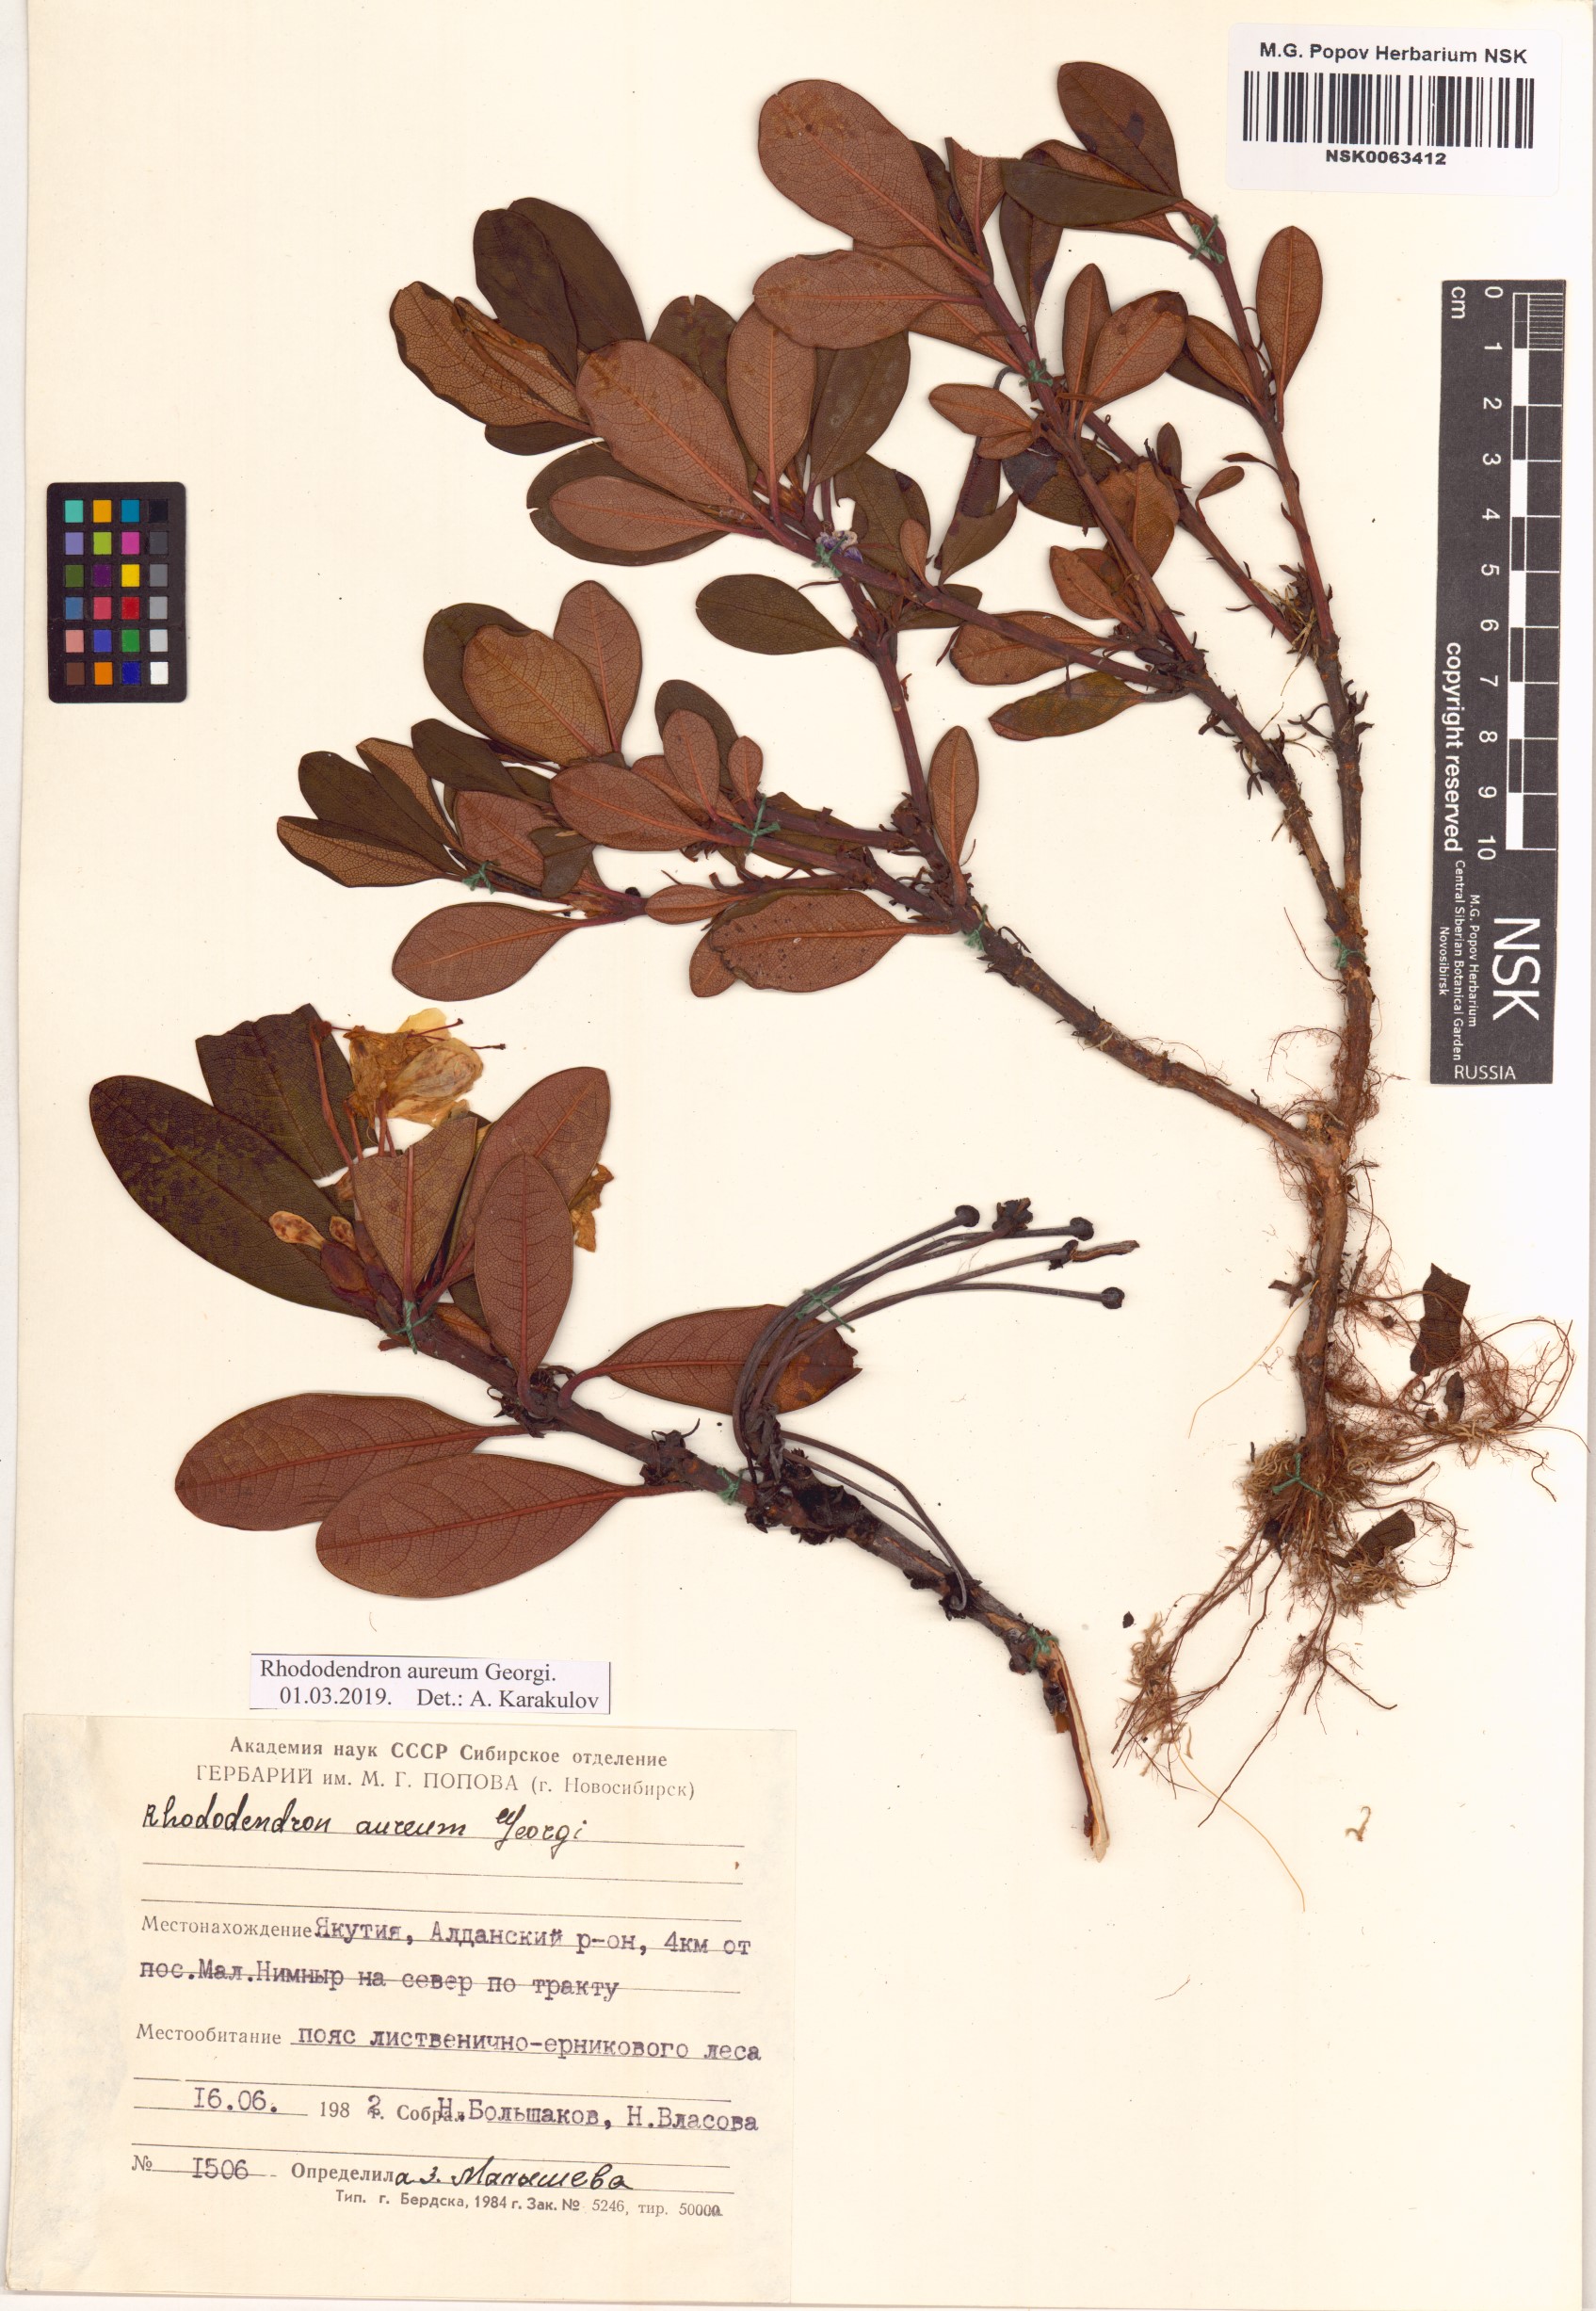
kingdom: Plantae
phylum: Tracheophyta
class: Magnoliopsida
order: Ericales
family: Ericaceae
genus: Rhododendron
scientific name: Rhododendron aureum
